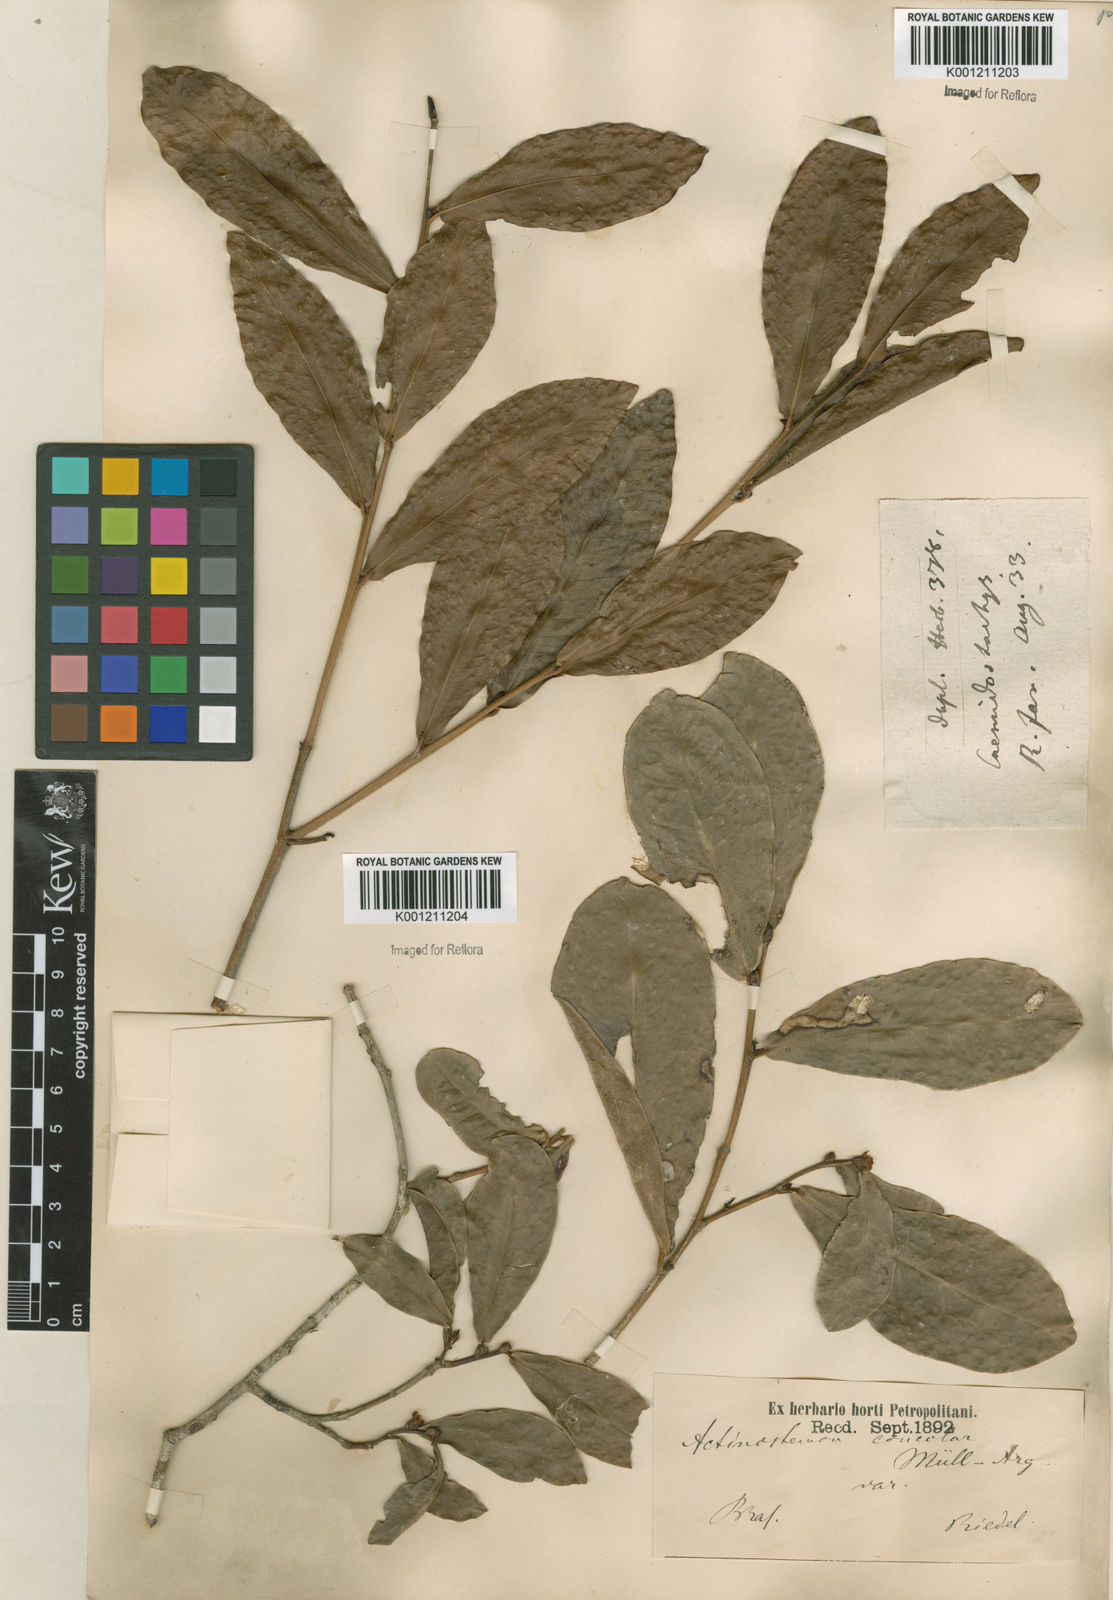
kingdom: Plantae
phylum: Tracheophyta
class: Magnoliopsida
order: Malpighiales
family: Euphorbiaceae
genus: Actinostemon
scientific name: Actinostemon
